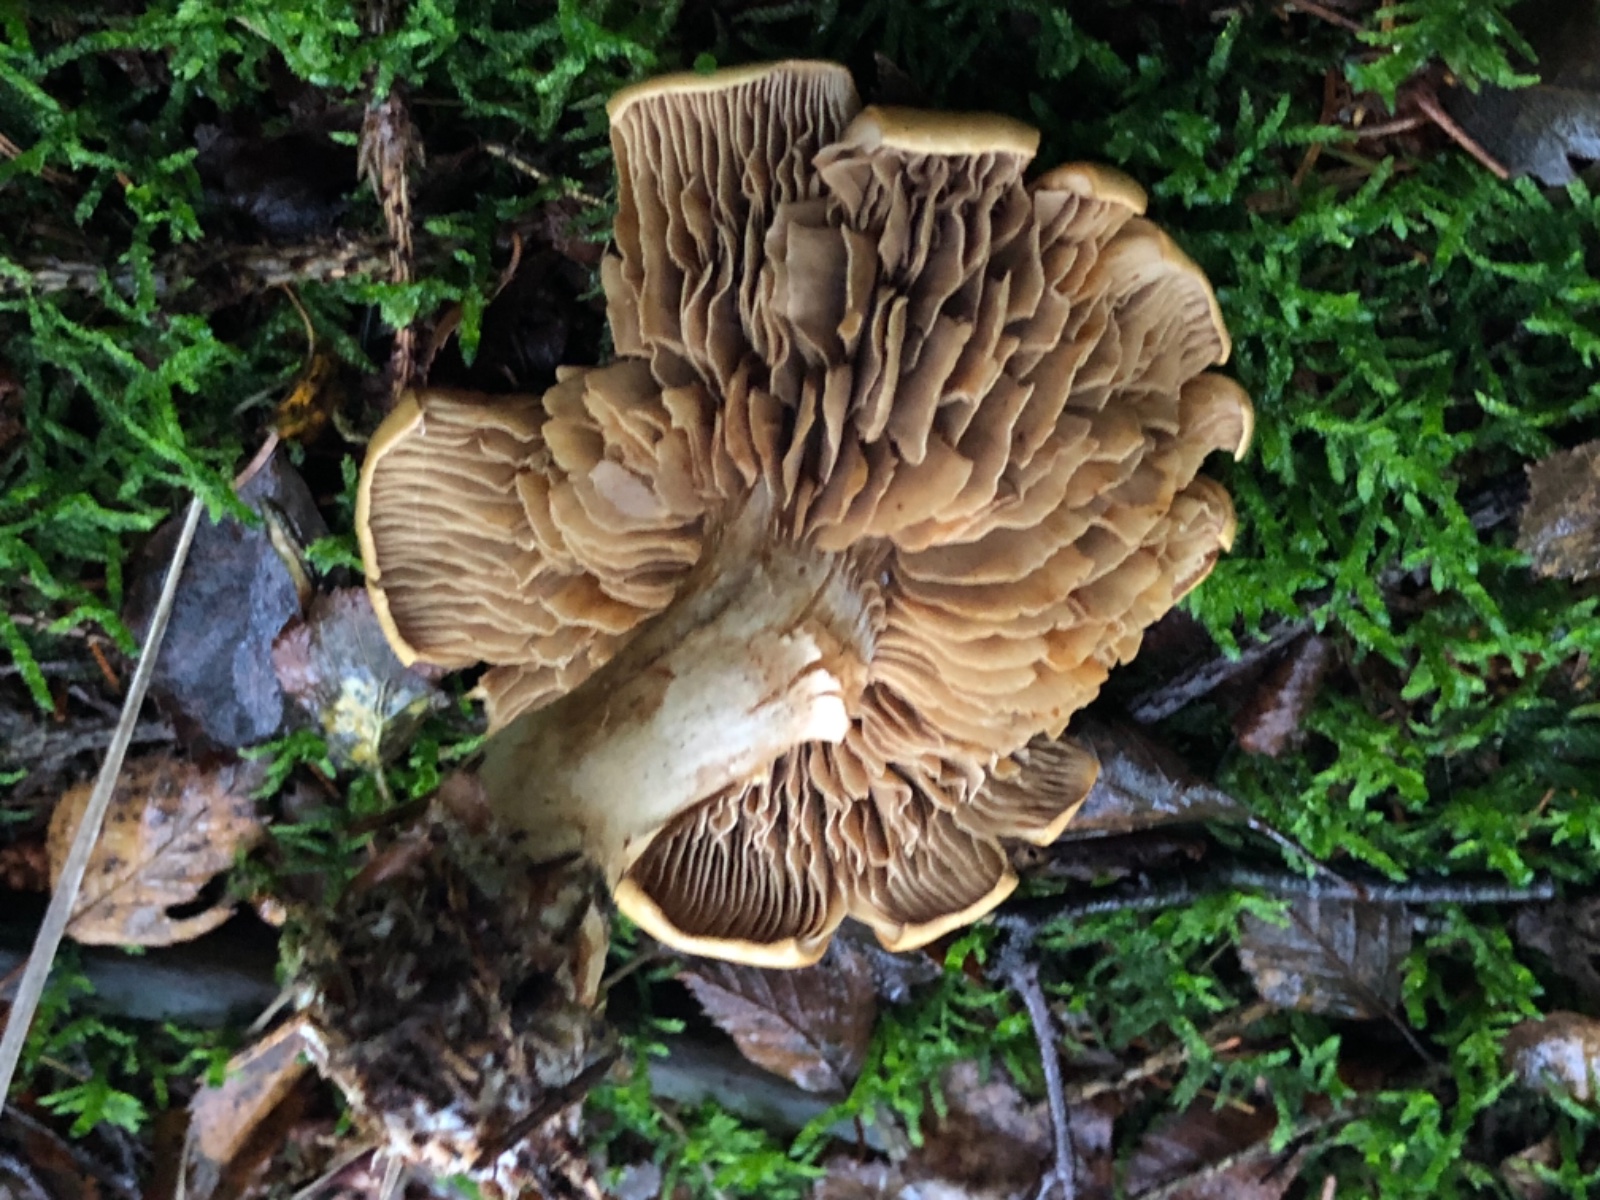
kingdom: Fungi
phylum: Basidiomycota
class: Agaricomycetes
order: Agaricales
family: Cortinariaceae
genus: Cortinarius
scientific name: Cortinarius
